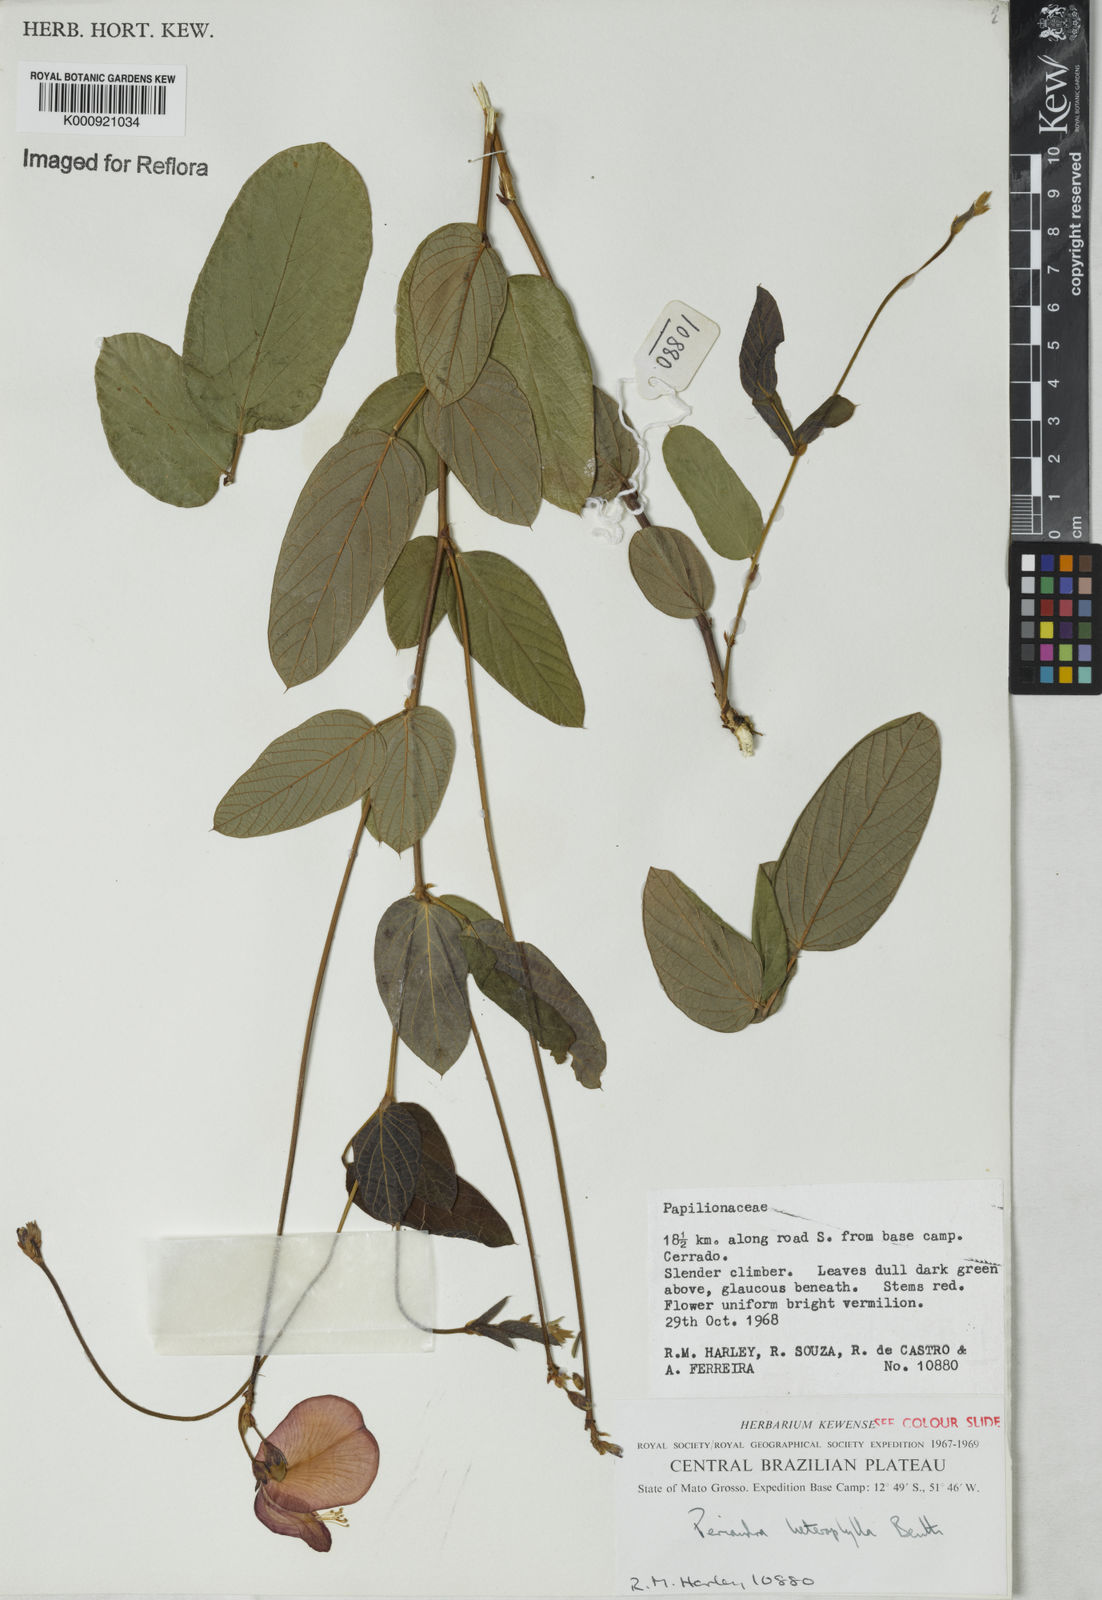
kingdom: Plantae
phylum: Tracheophyta
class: Magnoliopsida
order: Fabales
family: Fabaceae
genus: Periandra
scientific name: Periandra heterophylla
